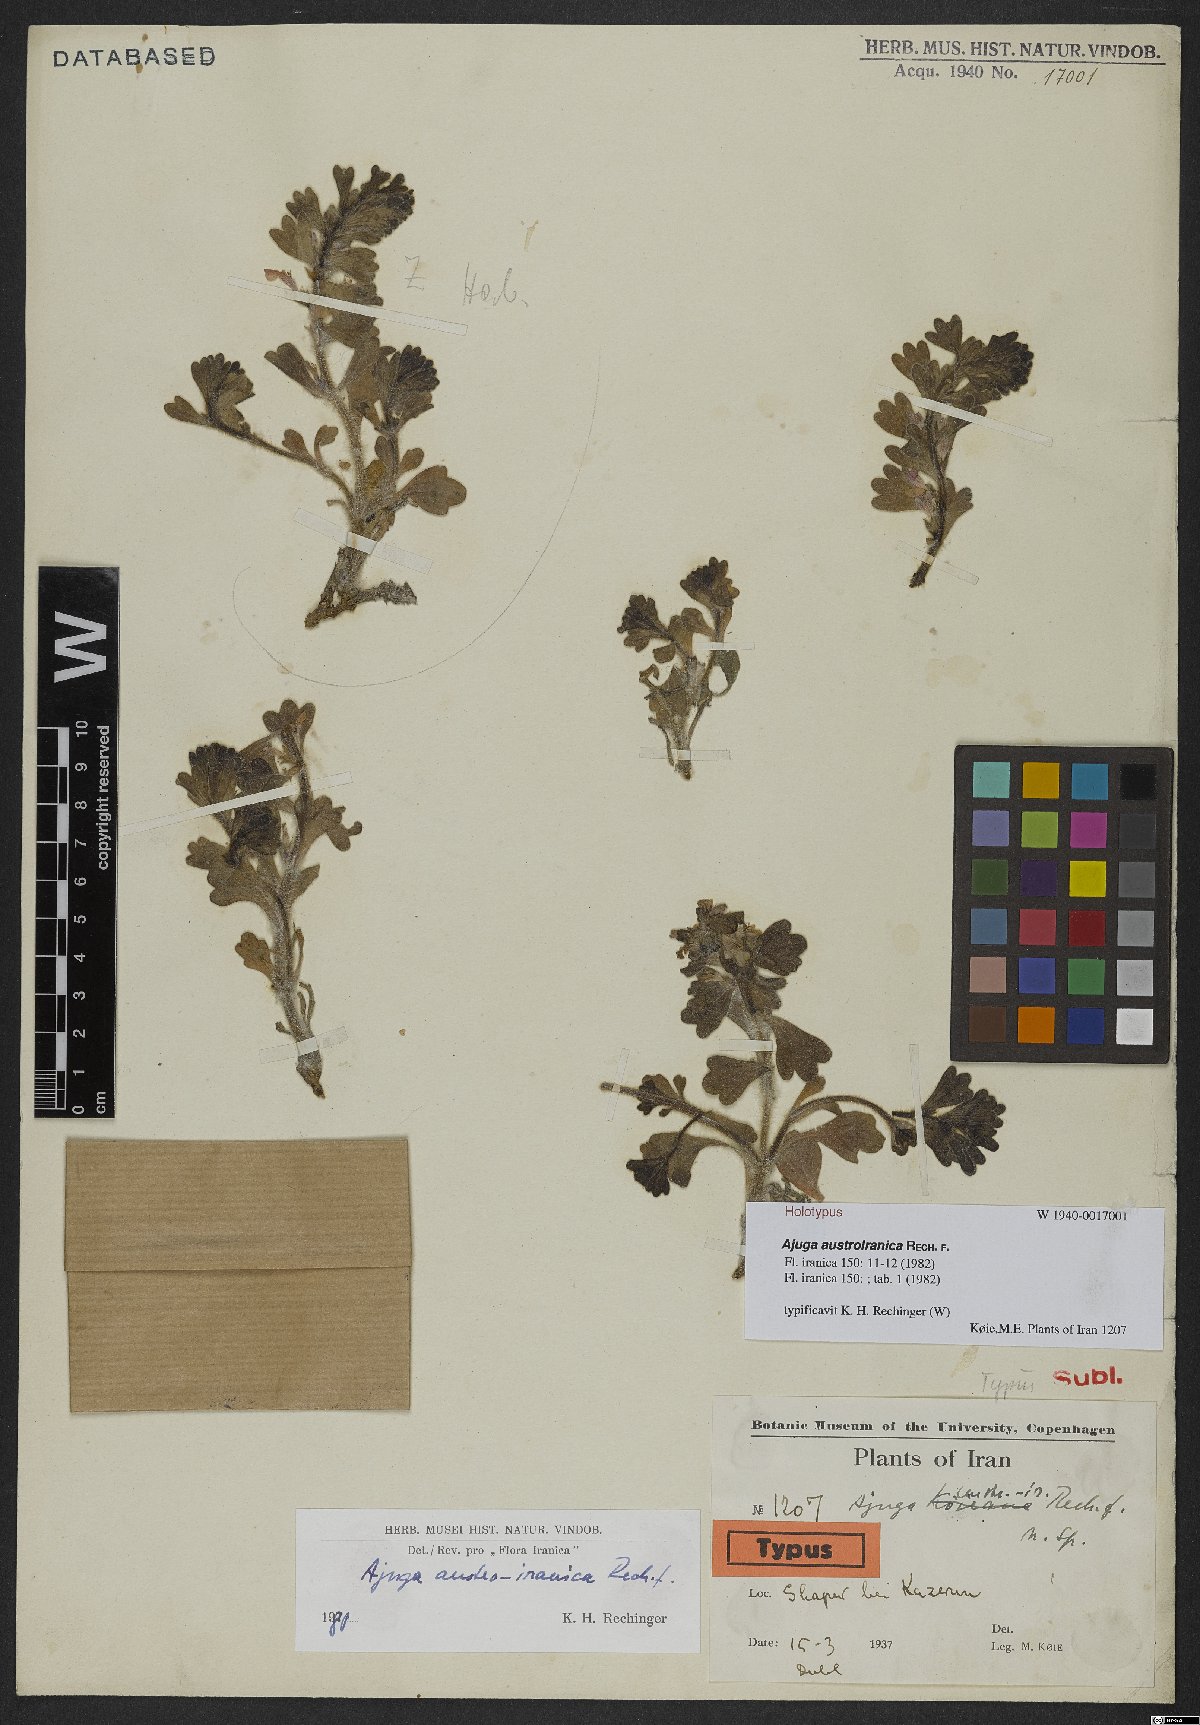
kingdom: Plantae
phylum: Tracheophyta
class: Magnoliopsida
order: Lamiales
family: Lamiaceae
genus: Ajuga
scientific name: Ajuga austroiranica
